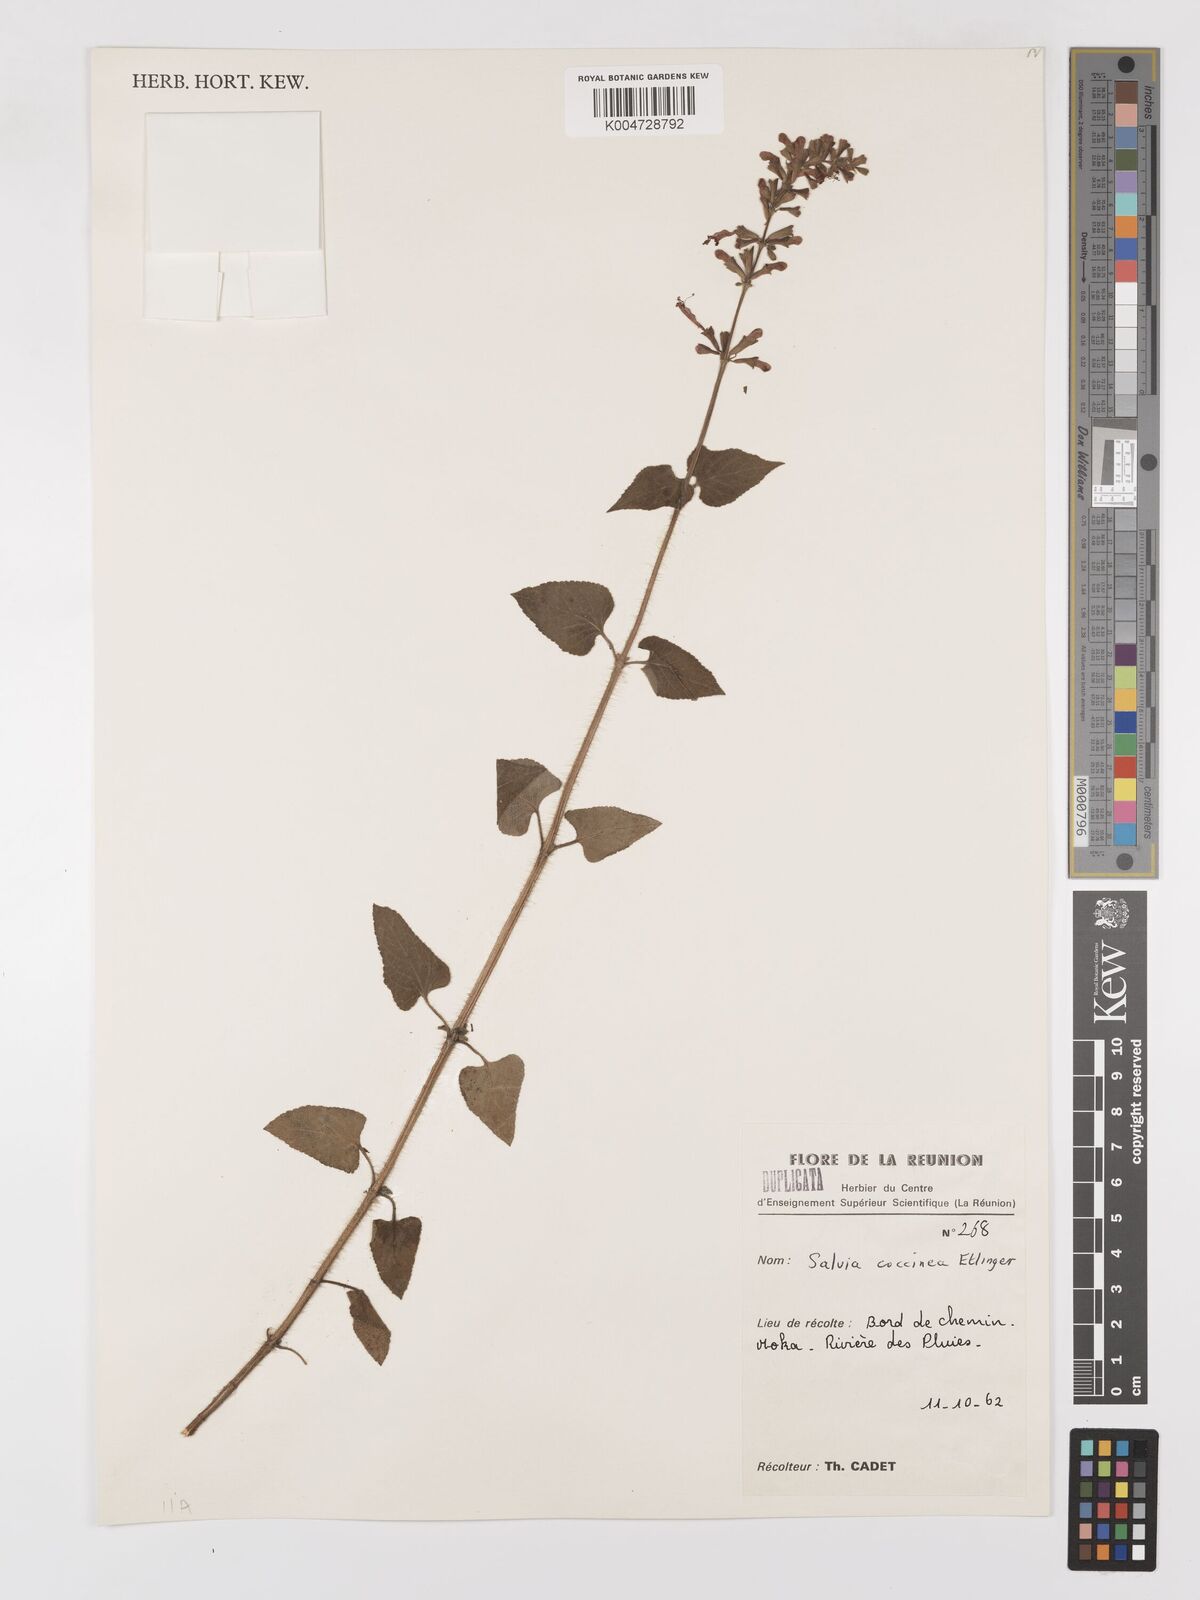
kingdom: Plantae
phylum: Tracheophyta
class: Magnoliopsida
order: Lamiales
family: Lamiaceae
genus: Salvia
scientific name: Salvia
